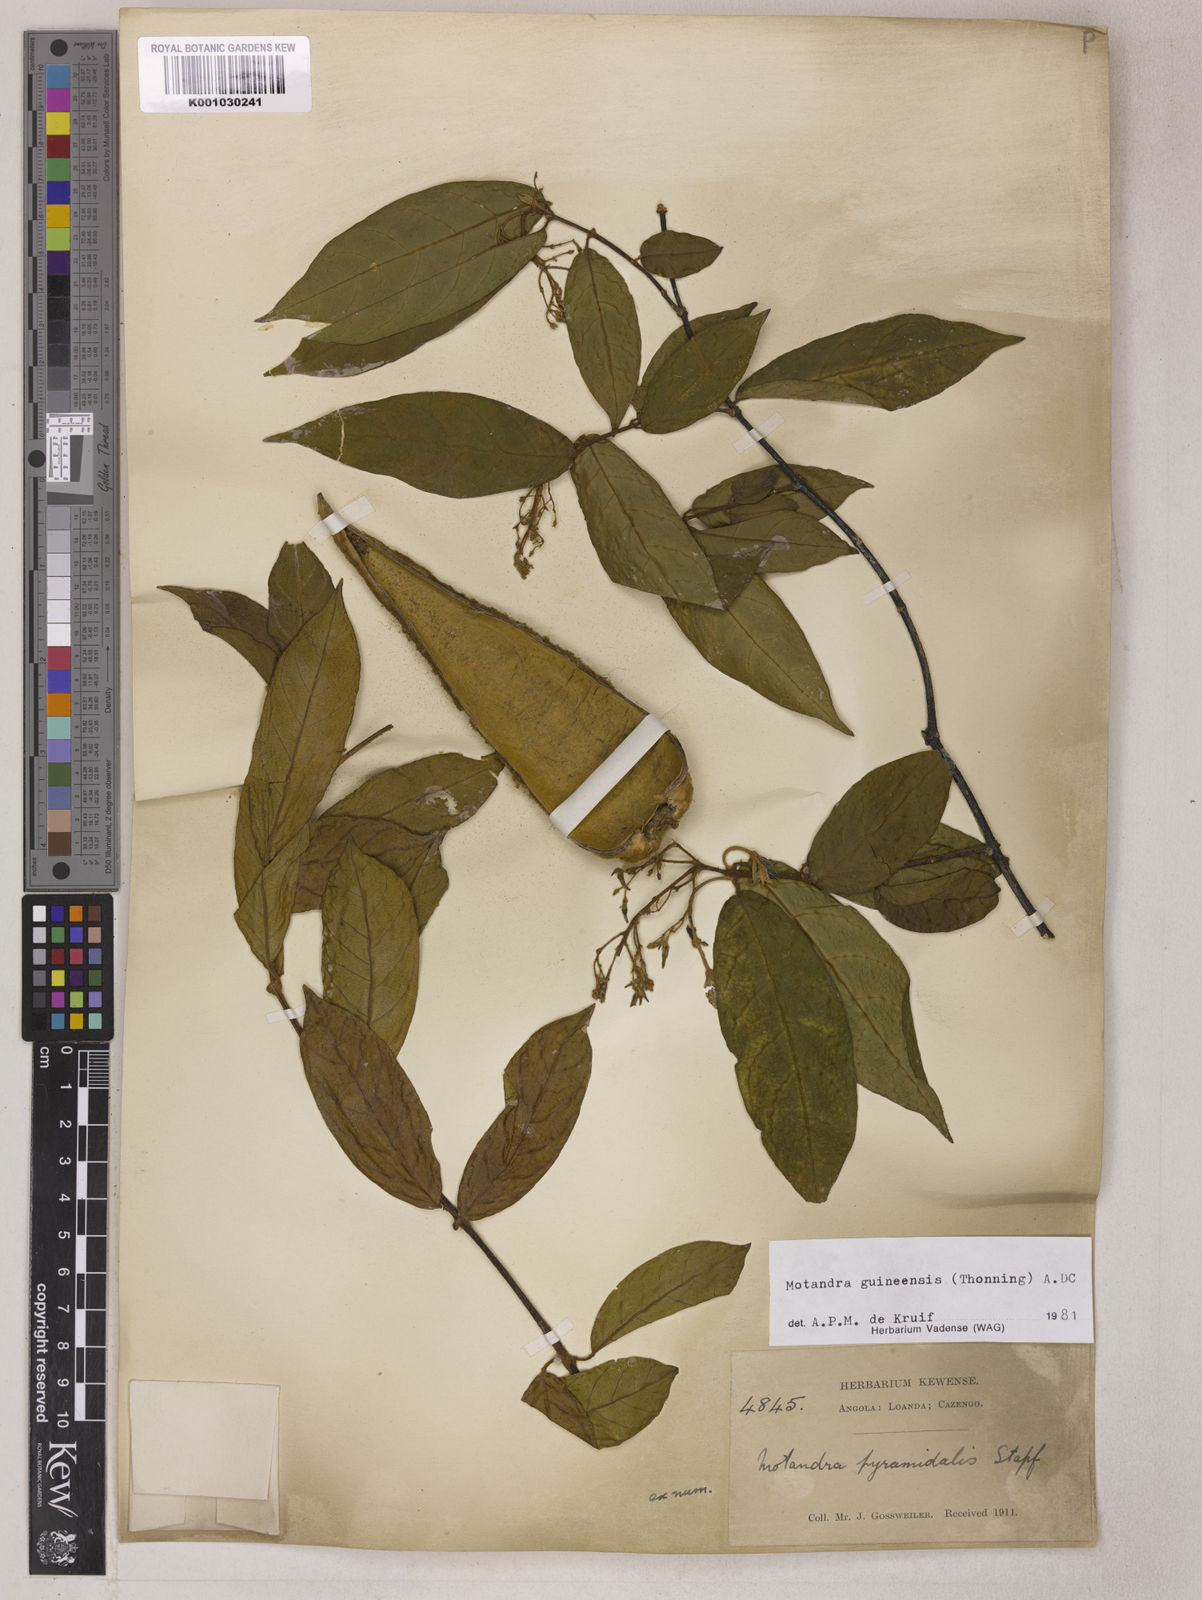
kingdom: Plantae
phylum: Tracheophyta
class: Magnoliopsida
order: Gentianales
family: Apocynaceae
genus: Motandra
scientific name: Motandra paniculata
